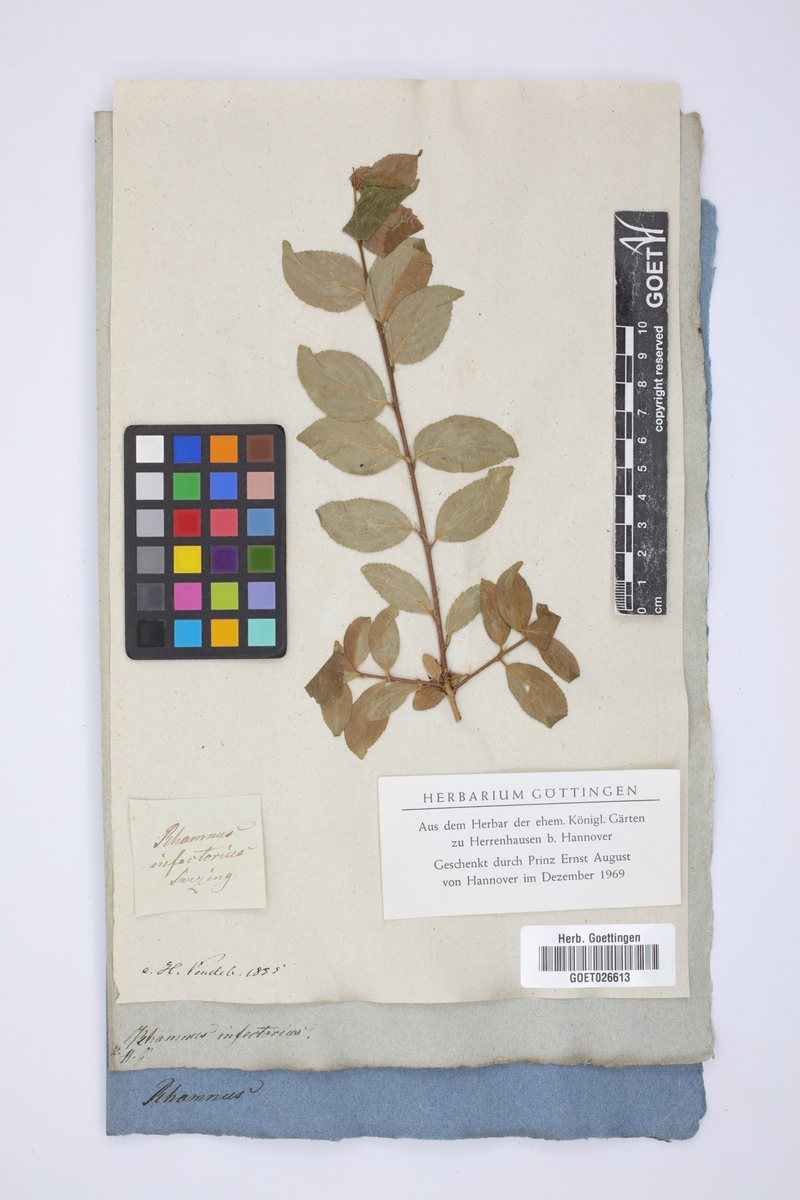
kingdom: Plantae
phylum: Tracheophyta
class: Magnoliopsida
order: Rosales
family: Rhamnaceae
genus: Rhamnus
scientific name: Rhamnus infectoria
